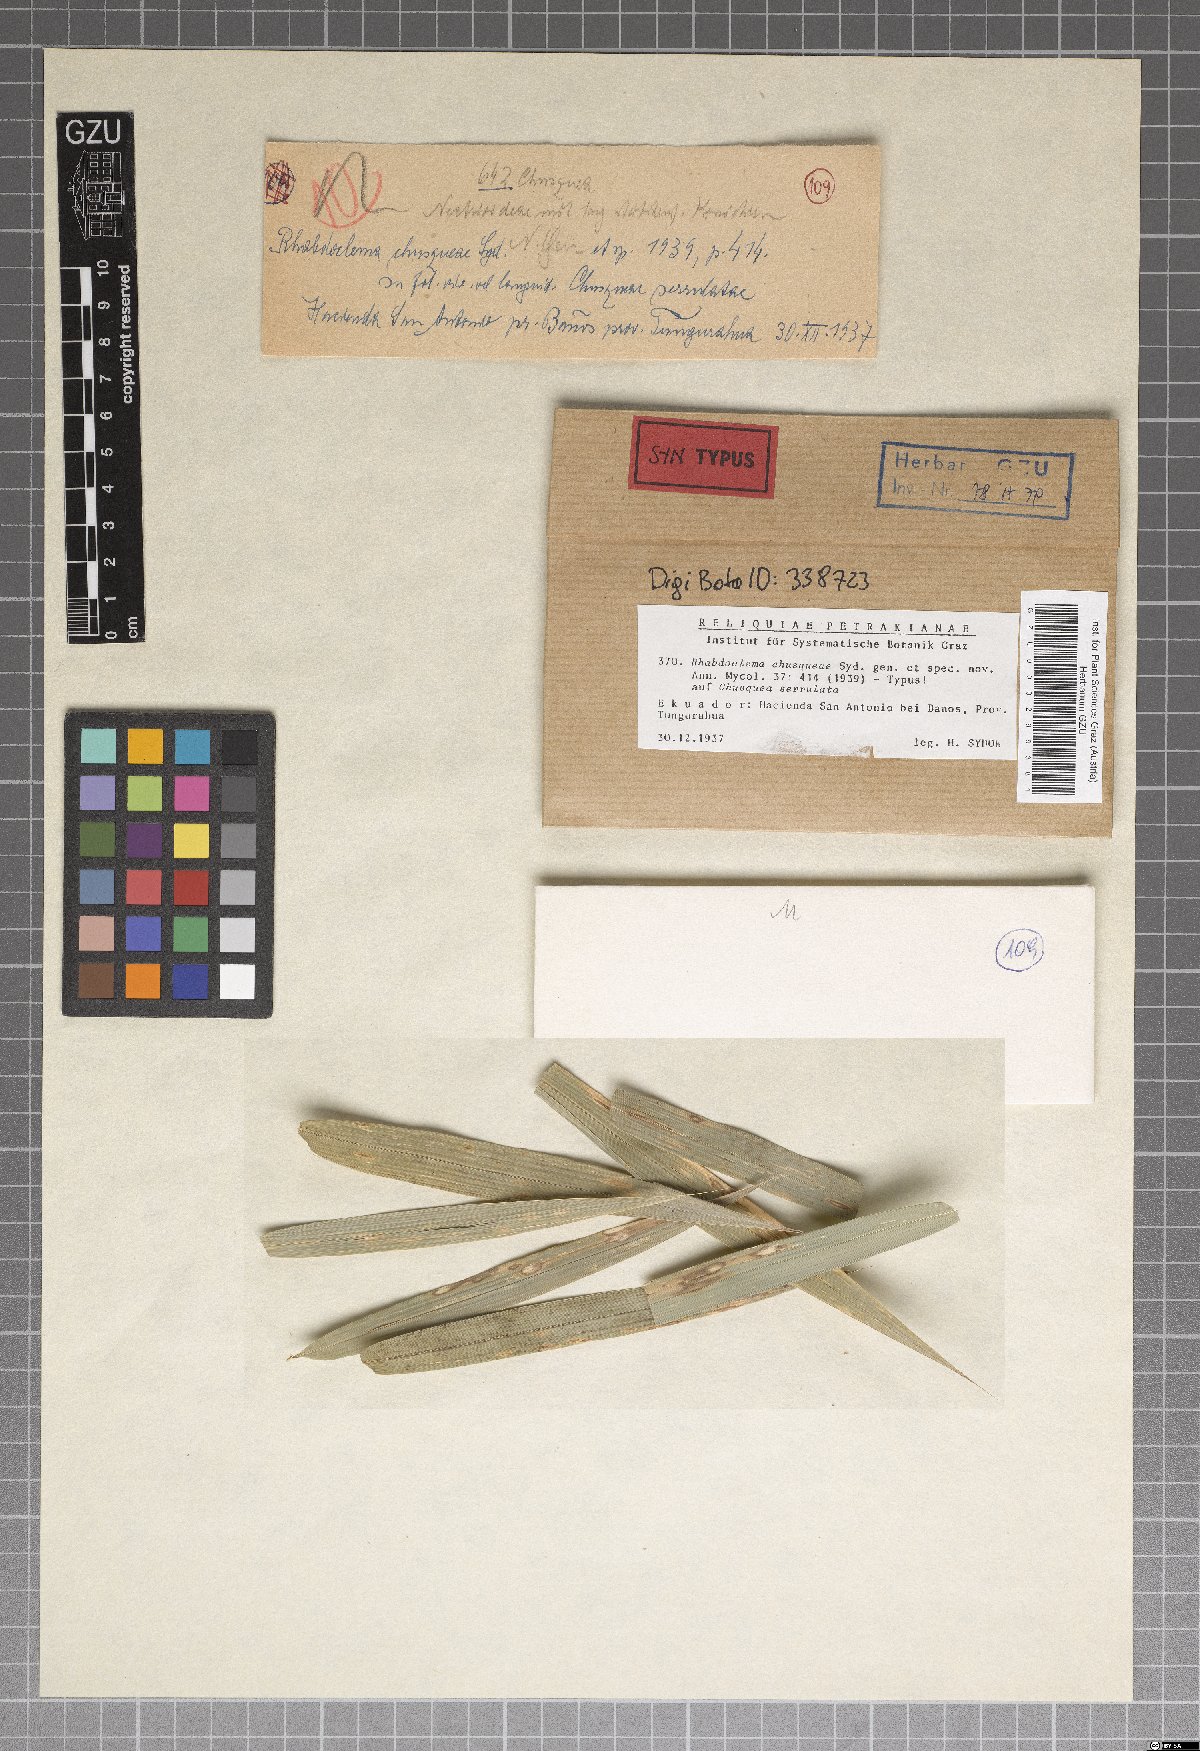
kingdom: Fungi
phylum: Ascomycota
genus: Rhabdoclema
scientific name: Rhabdoclema chusqueae
